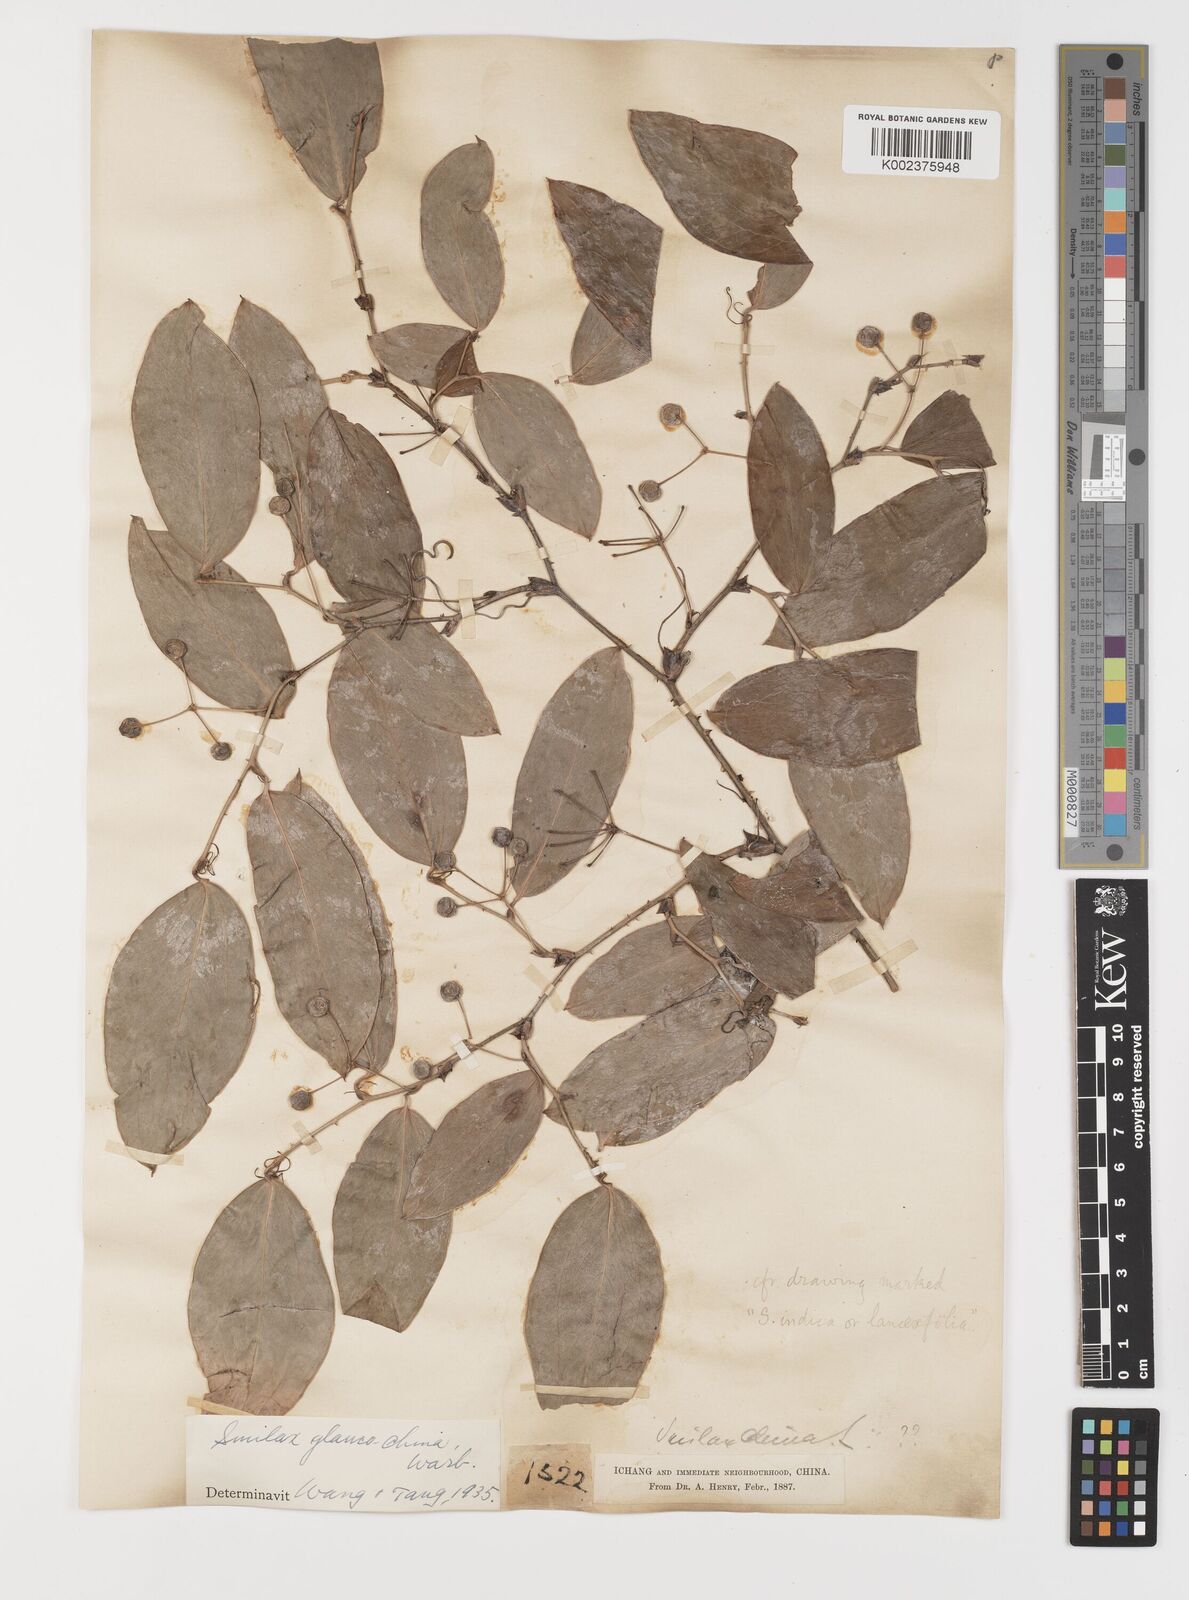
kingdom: Plantae
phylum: Tracheophyta
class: Liliopsida
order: Liliales
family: Smilacaceae
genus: Smilax
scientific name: Smilax glaucochina
